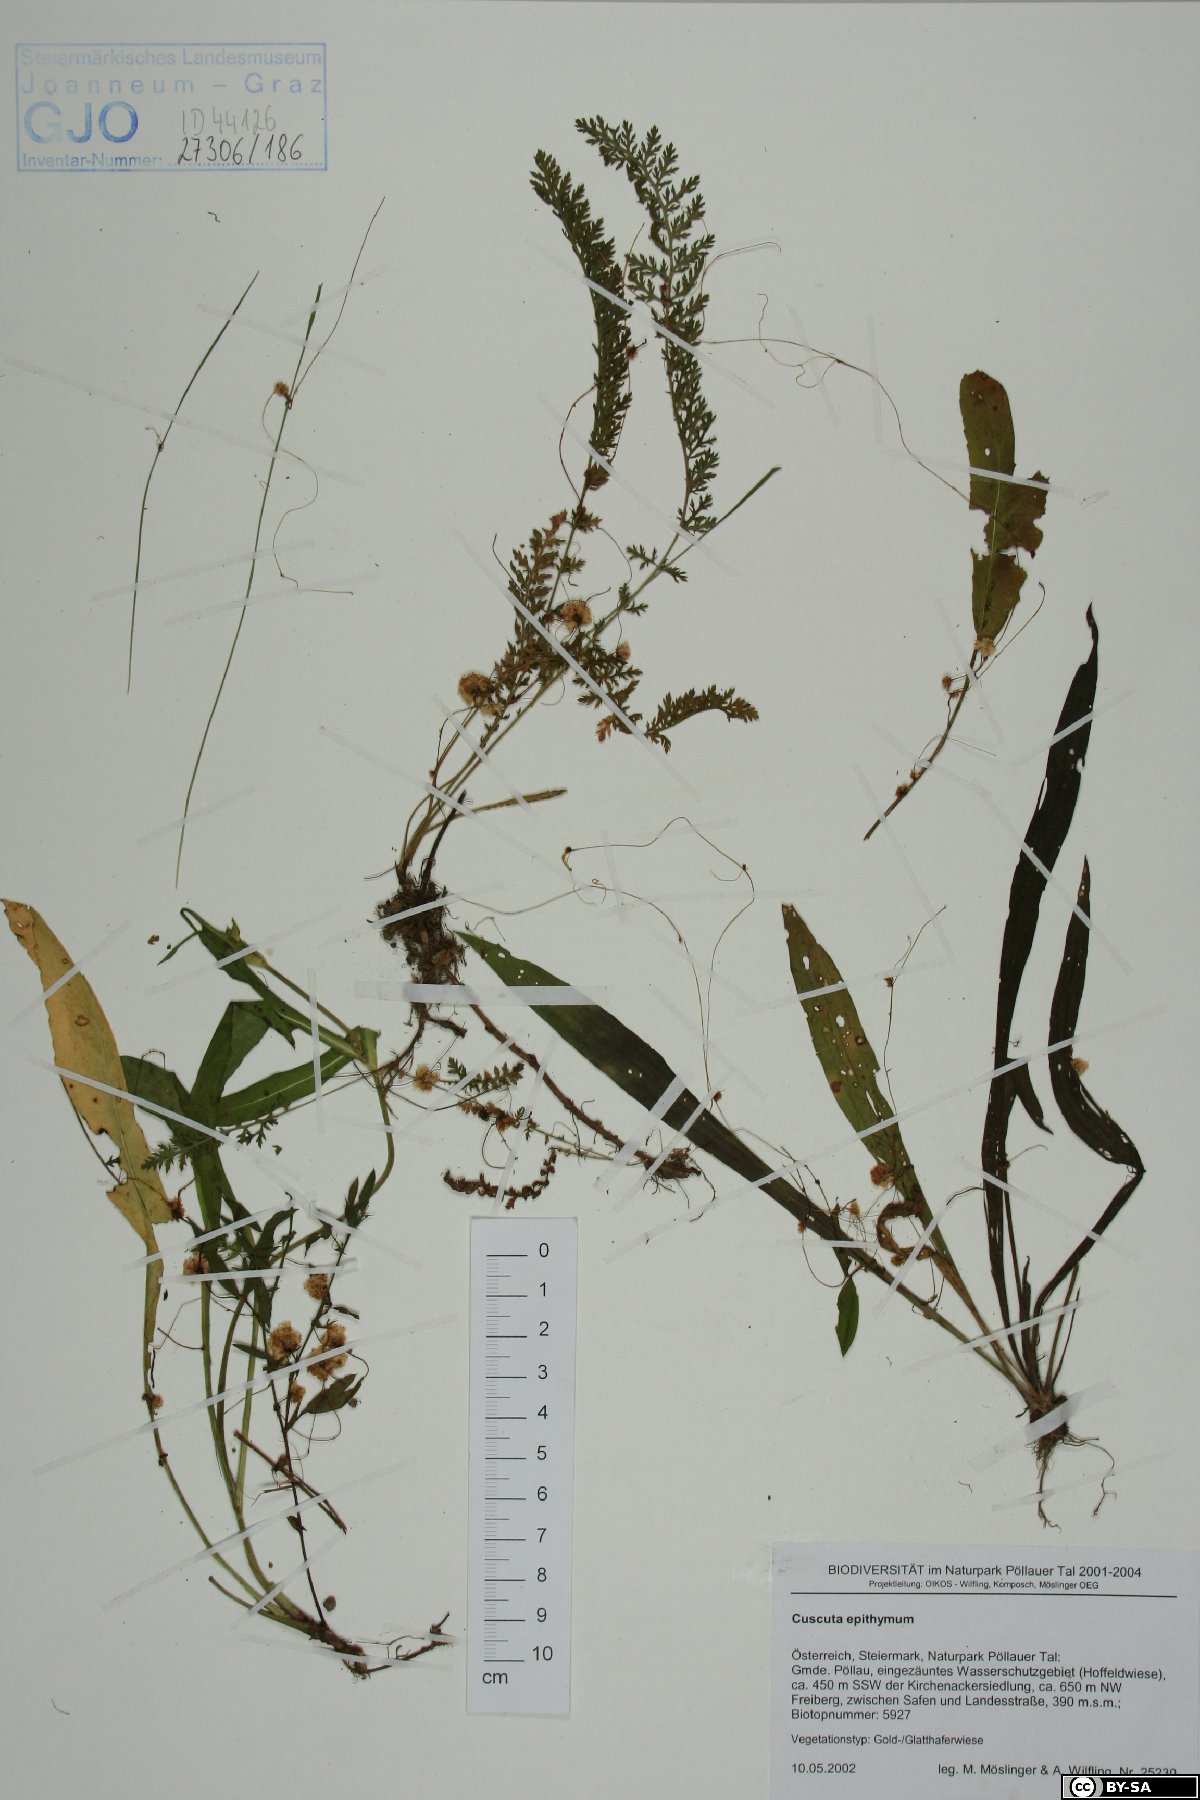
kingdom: Plantae
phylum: Tracheophyta
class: Magnoliopsida
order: Solanales
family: Convolvulaceae
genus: Cuscuta
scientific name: Cuscuta epithymum
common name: Clover dodder
